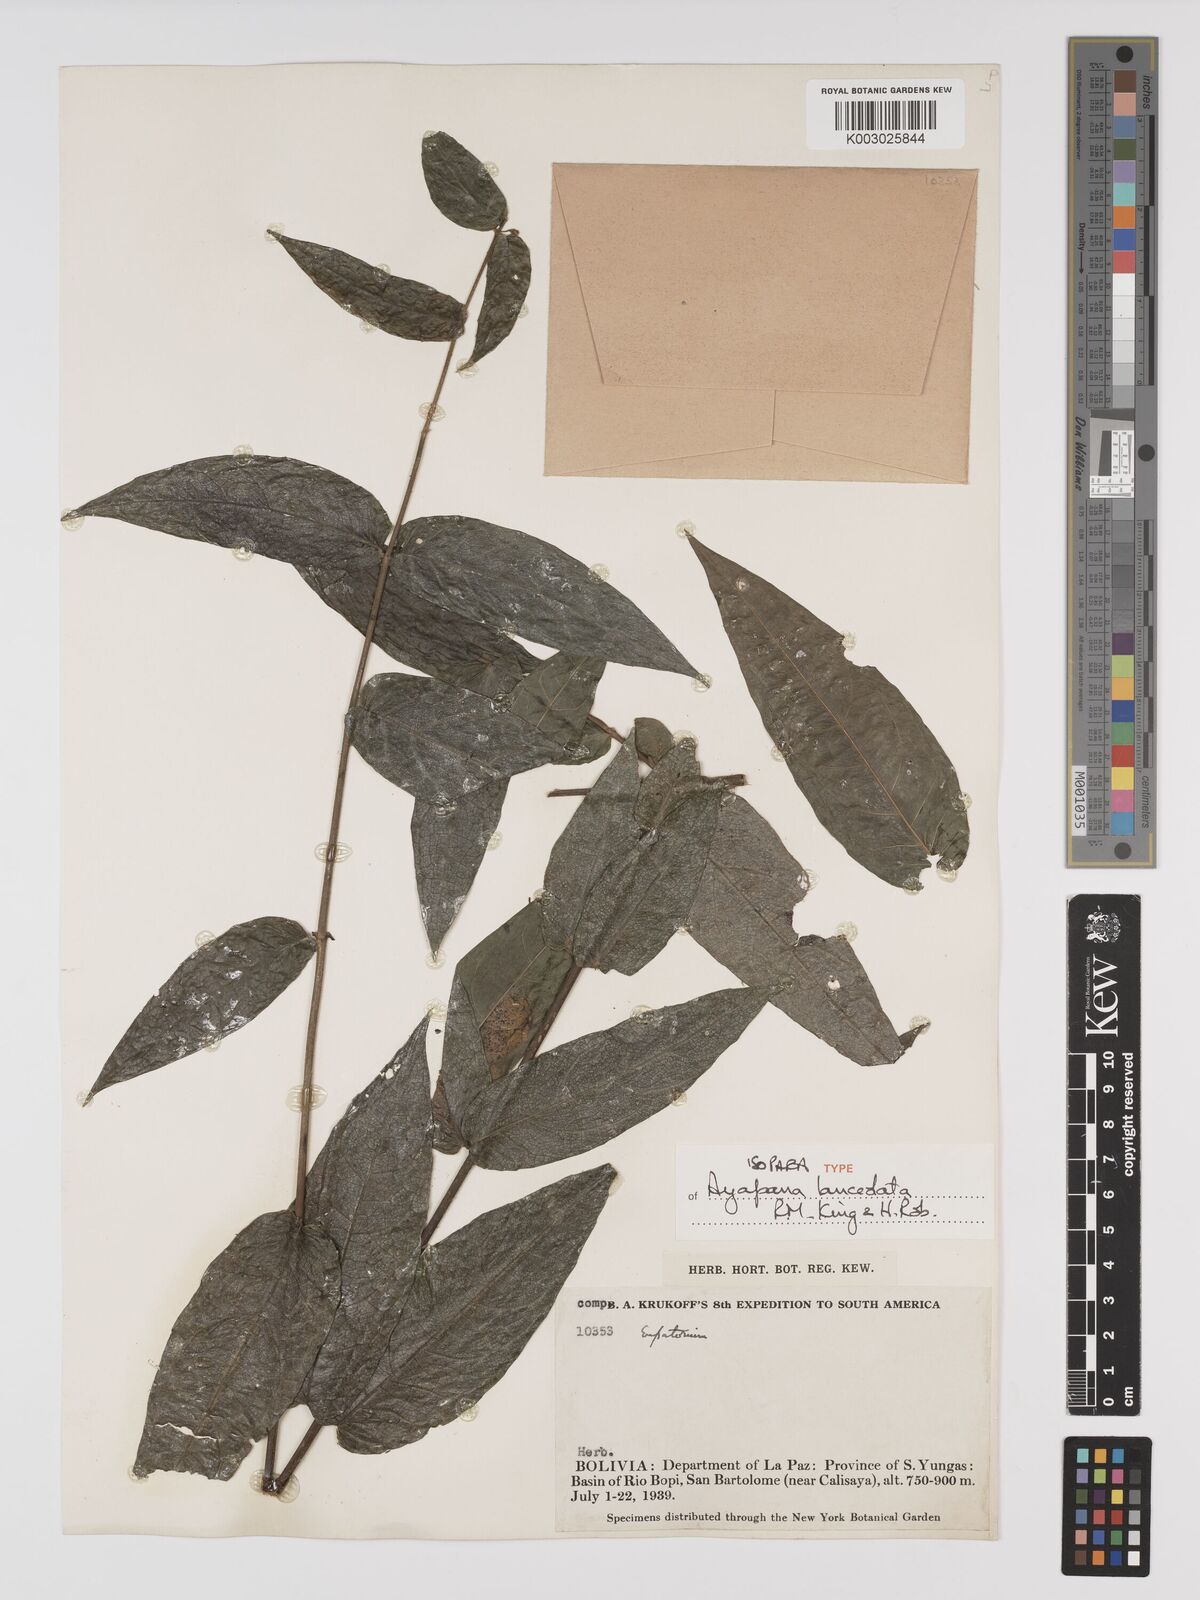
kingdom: Plantae
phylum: Tracheophyta
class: Magnoliopsida
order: Asterales
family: Asteraceae
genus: Ayapana
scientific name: Ayapana lanceolata
